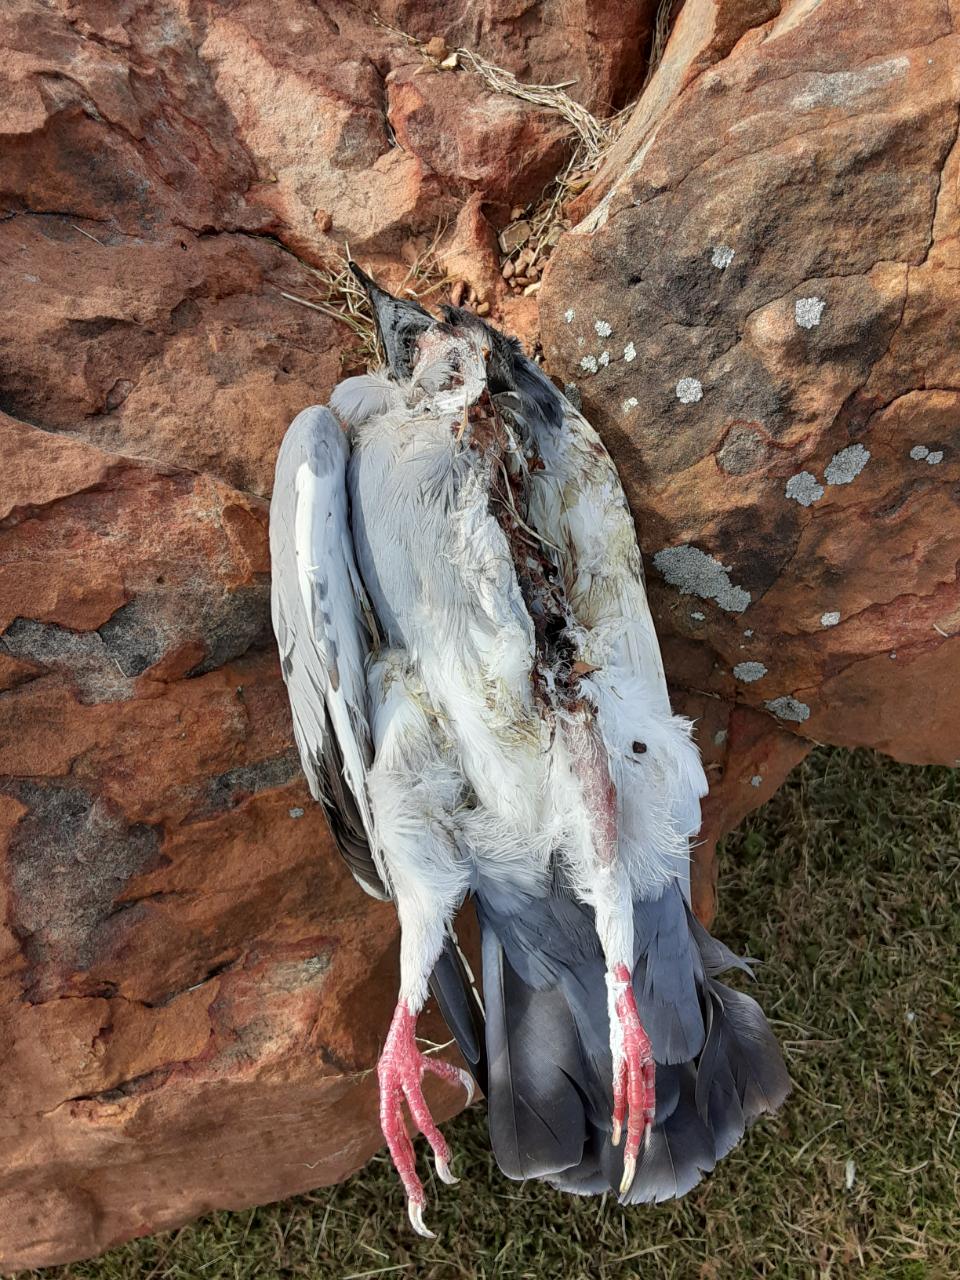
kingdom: Animalia
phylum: Chordata
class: Aves
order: Columbiformes
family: Columbidae
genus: Columba
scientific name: Columba livia
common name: Rock pigeon
